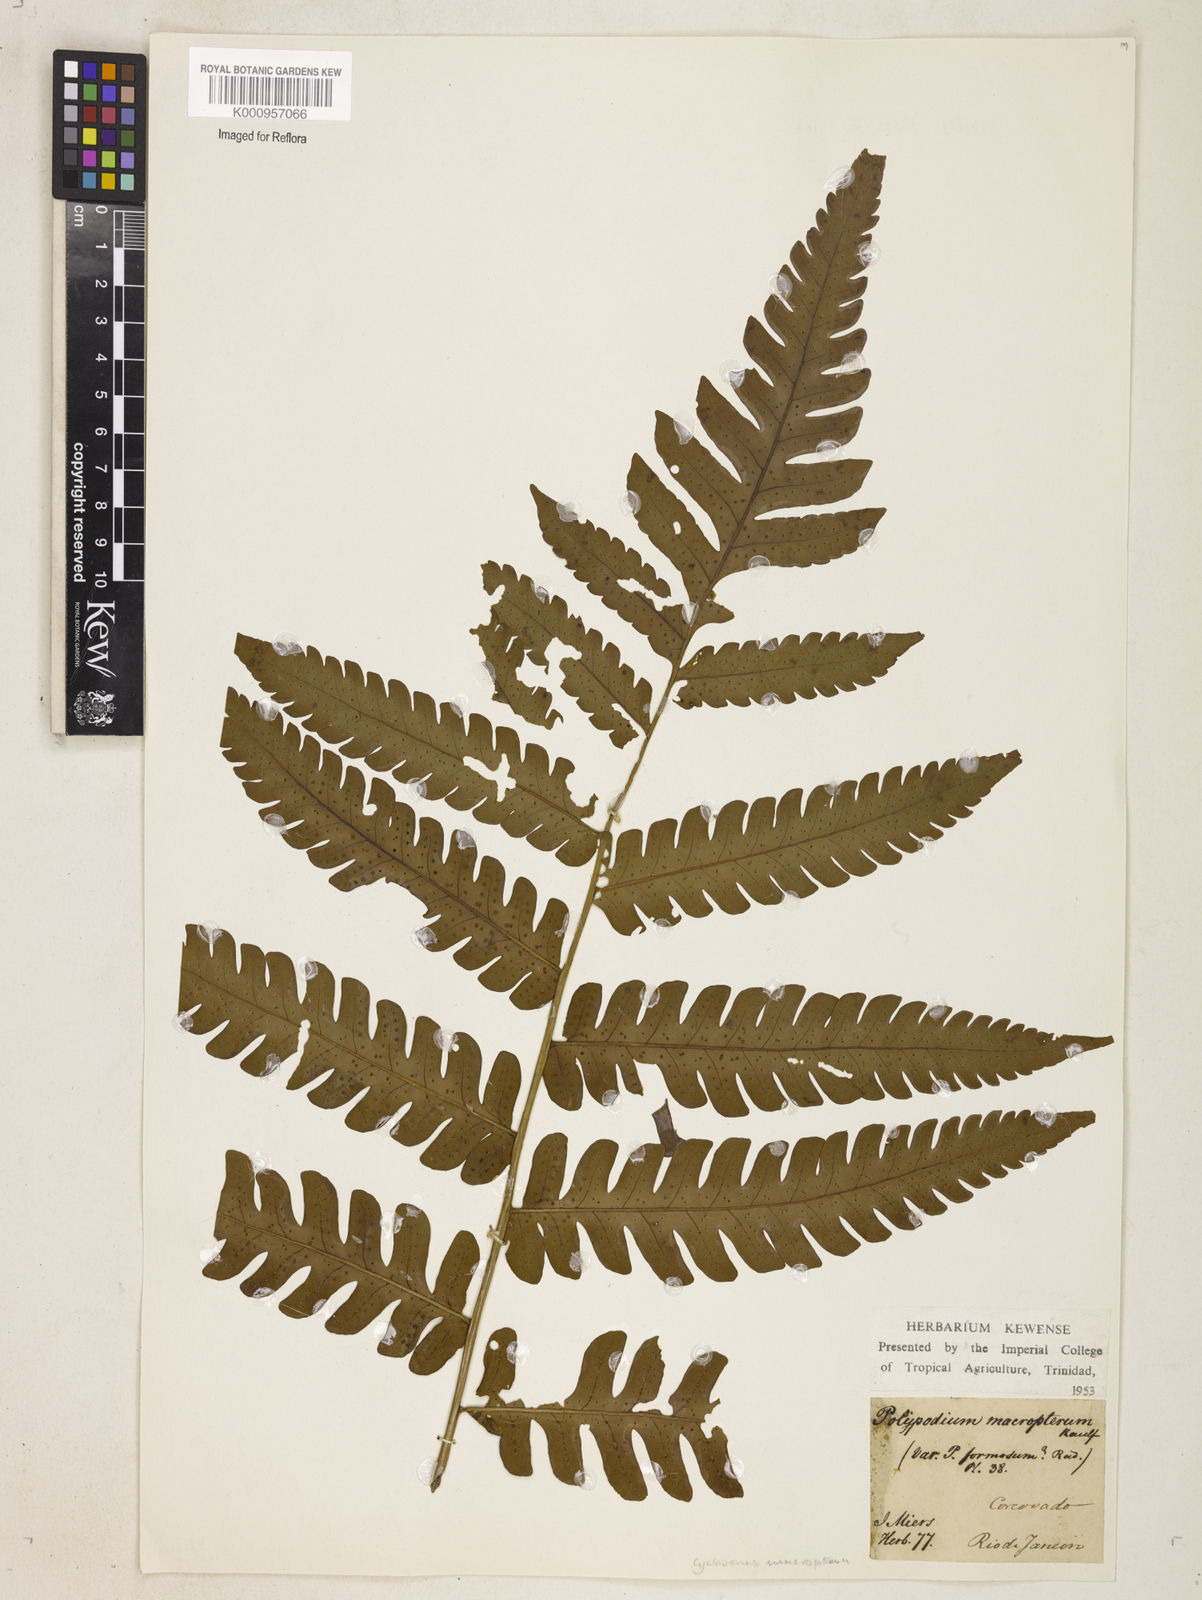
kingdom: Plantae
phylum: Tracheophyta
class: Polypodiopsida
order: Polypodiales
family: Dryopteridaceae
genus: Megalastrum
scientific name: Megalastrum grande
